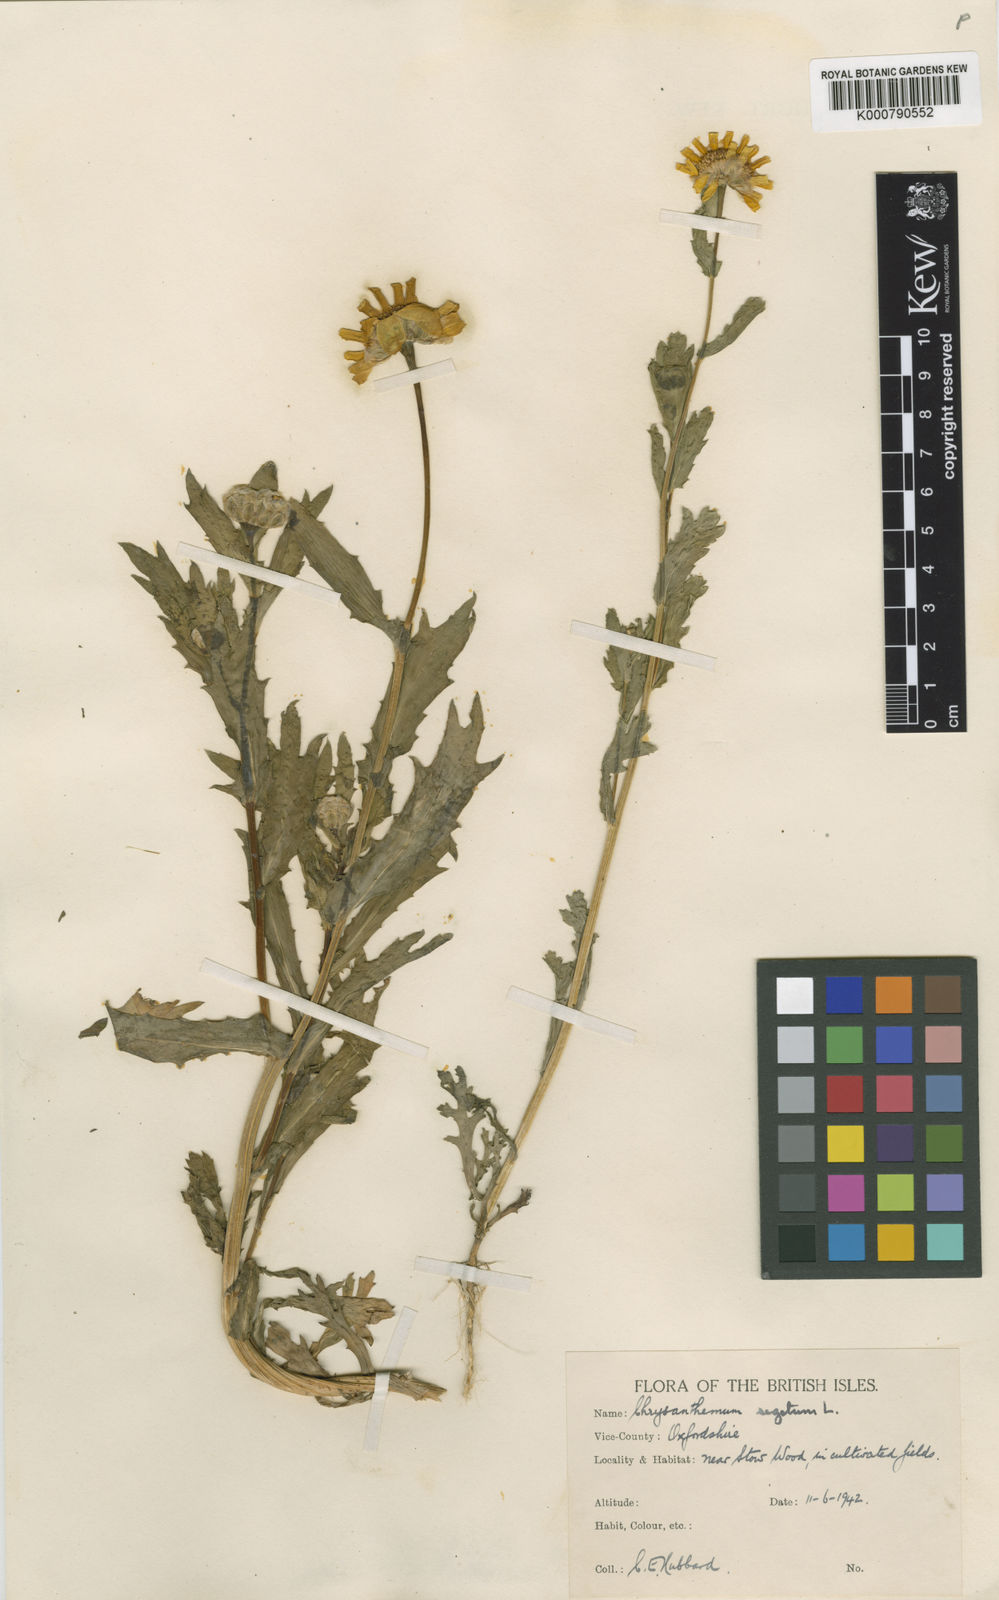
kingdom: Plantae
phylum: Tracheophyta
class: Magnoliopsida
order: Asterales
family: Asteraceae
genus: Glebionis
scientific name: Glebionis
